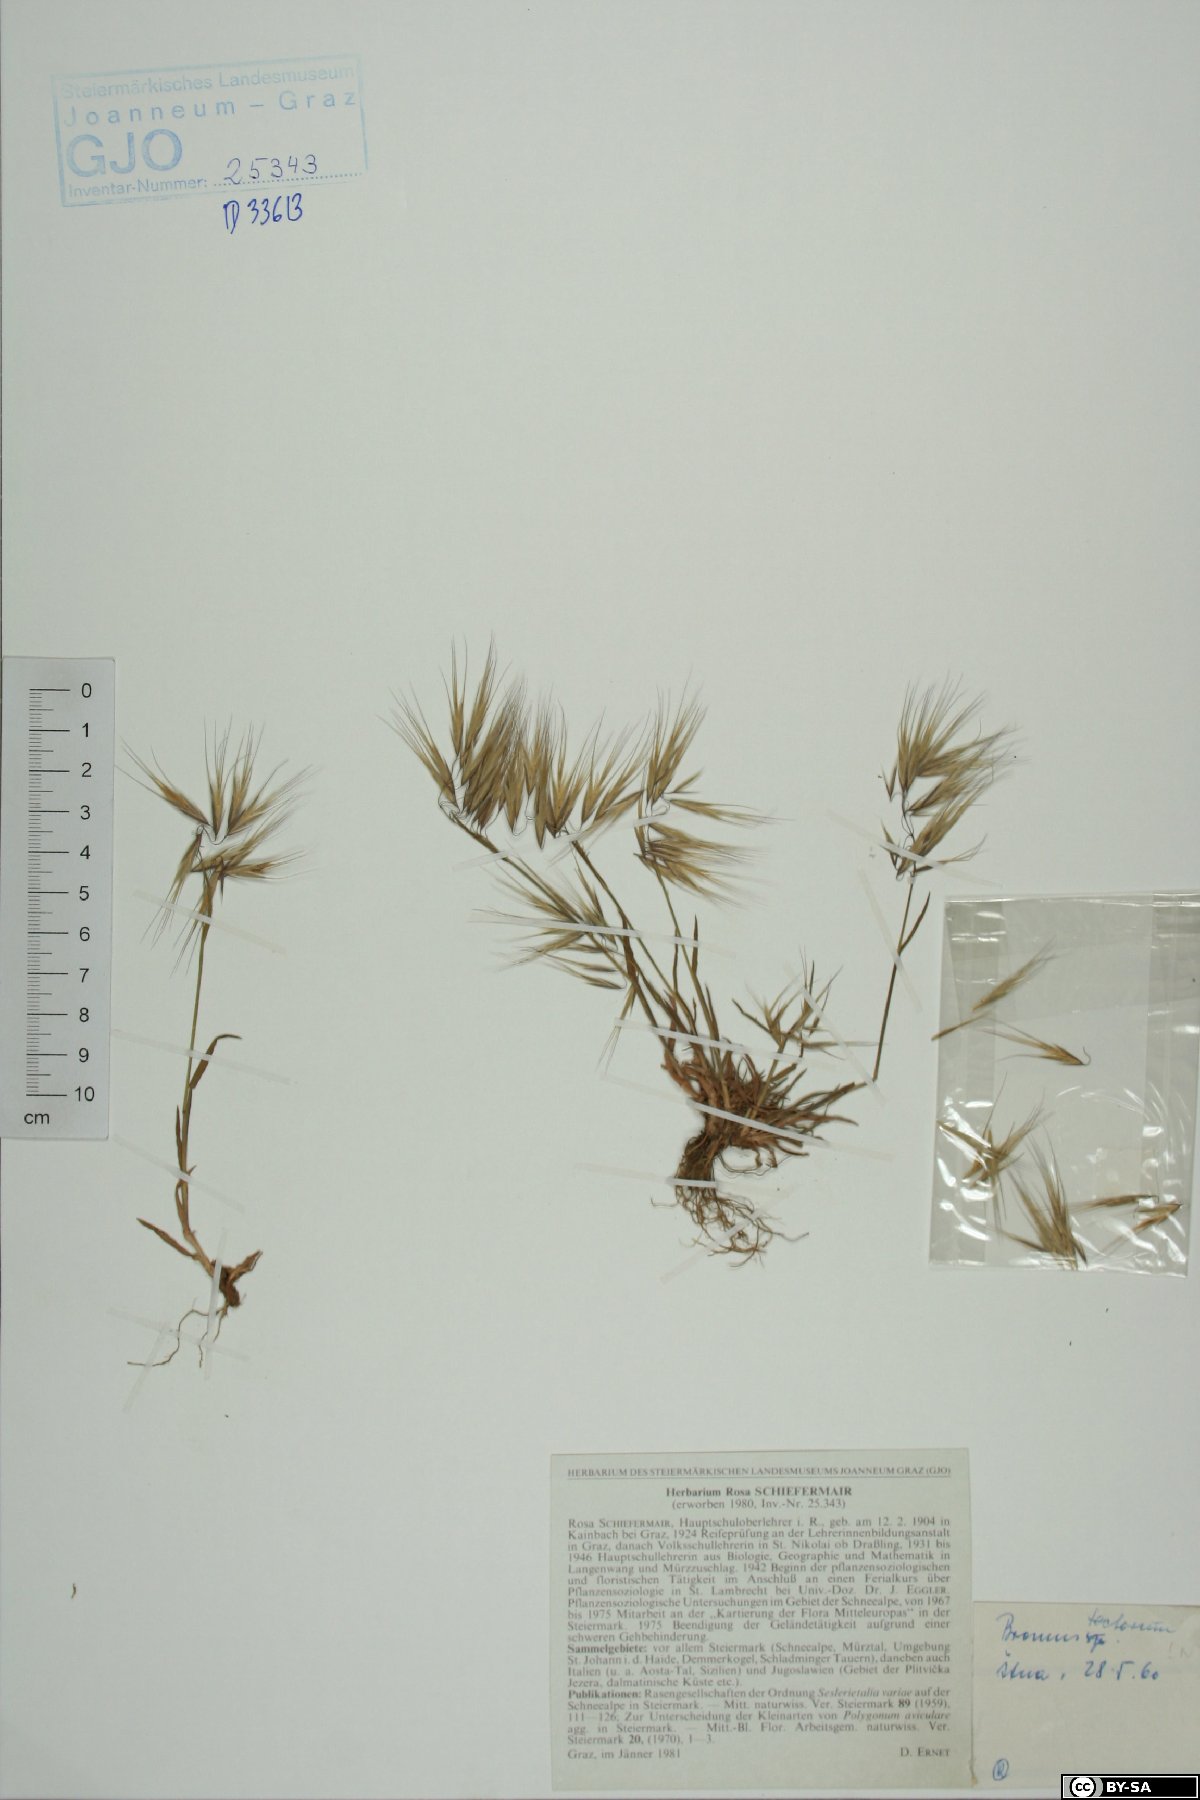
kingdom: Plantae
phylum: Tracheophyta
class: Liliopsida
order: Poales
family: Poaceae
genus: Bromus
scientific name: Bromus tectorum
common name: Cheatgrass
